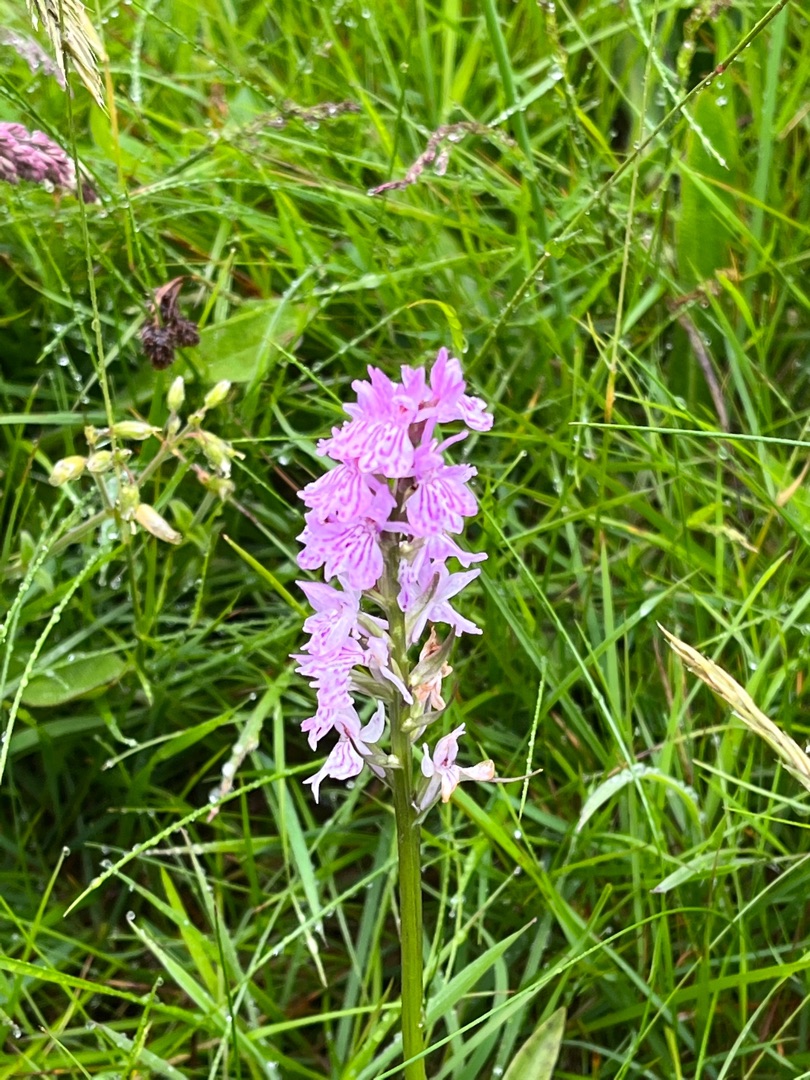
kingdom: Plantae
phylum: Tracheophyta
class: Liliopsida
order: Asparagales
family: Orchidaceae
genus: Dactylorhiza
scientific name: Dactylorhiza maculata
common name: Plettet gøgeurt
